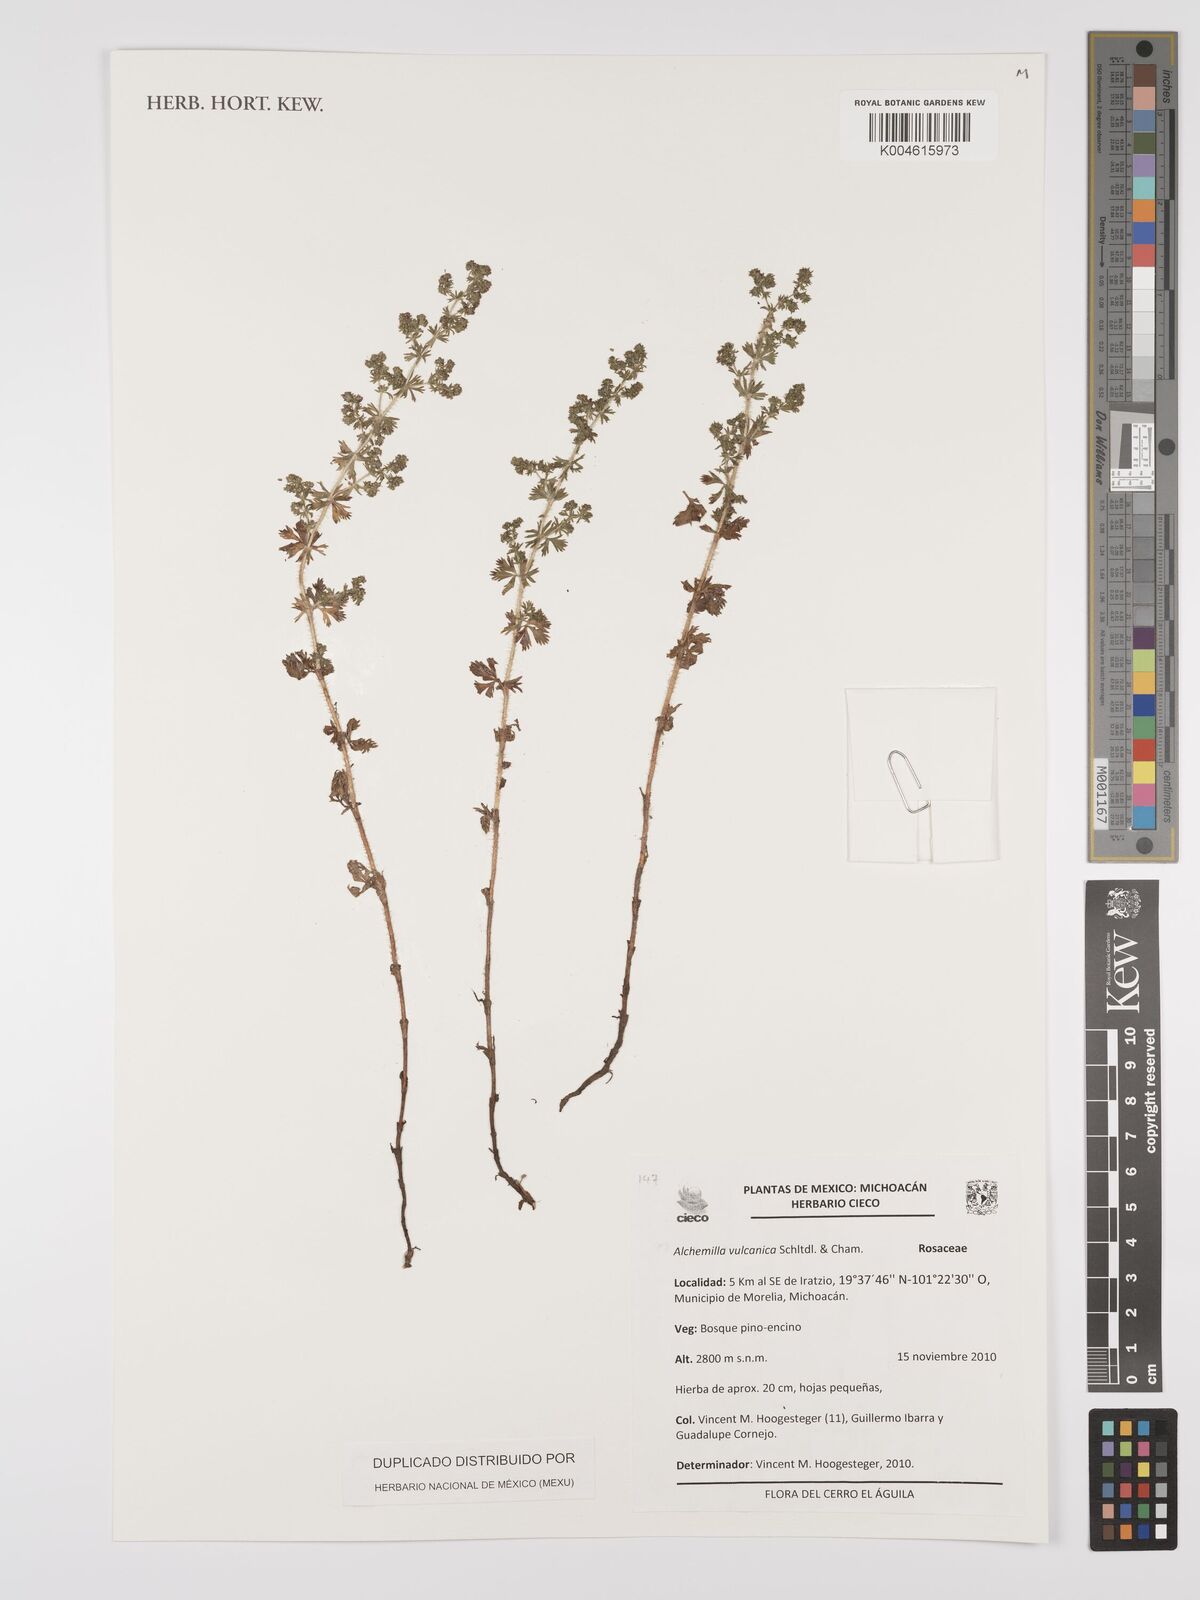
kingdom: Plantae
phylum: Tracheophyta
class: Magnoliopsida
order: Rosales
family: Rosaceae
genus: Alchemilla
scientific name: Alchemilla
